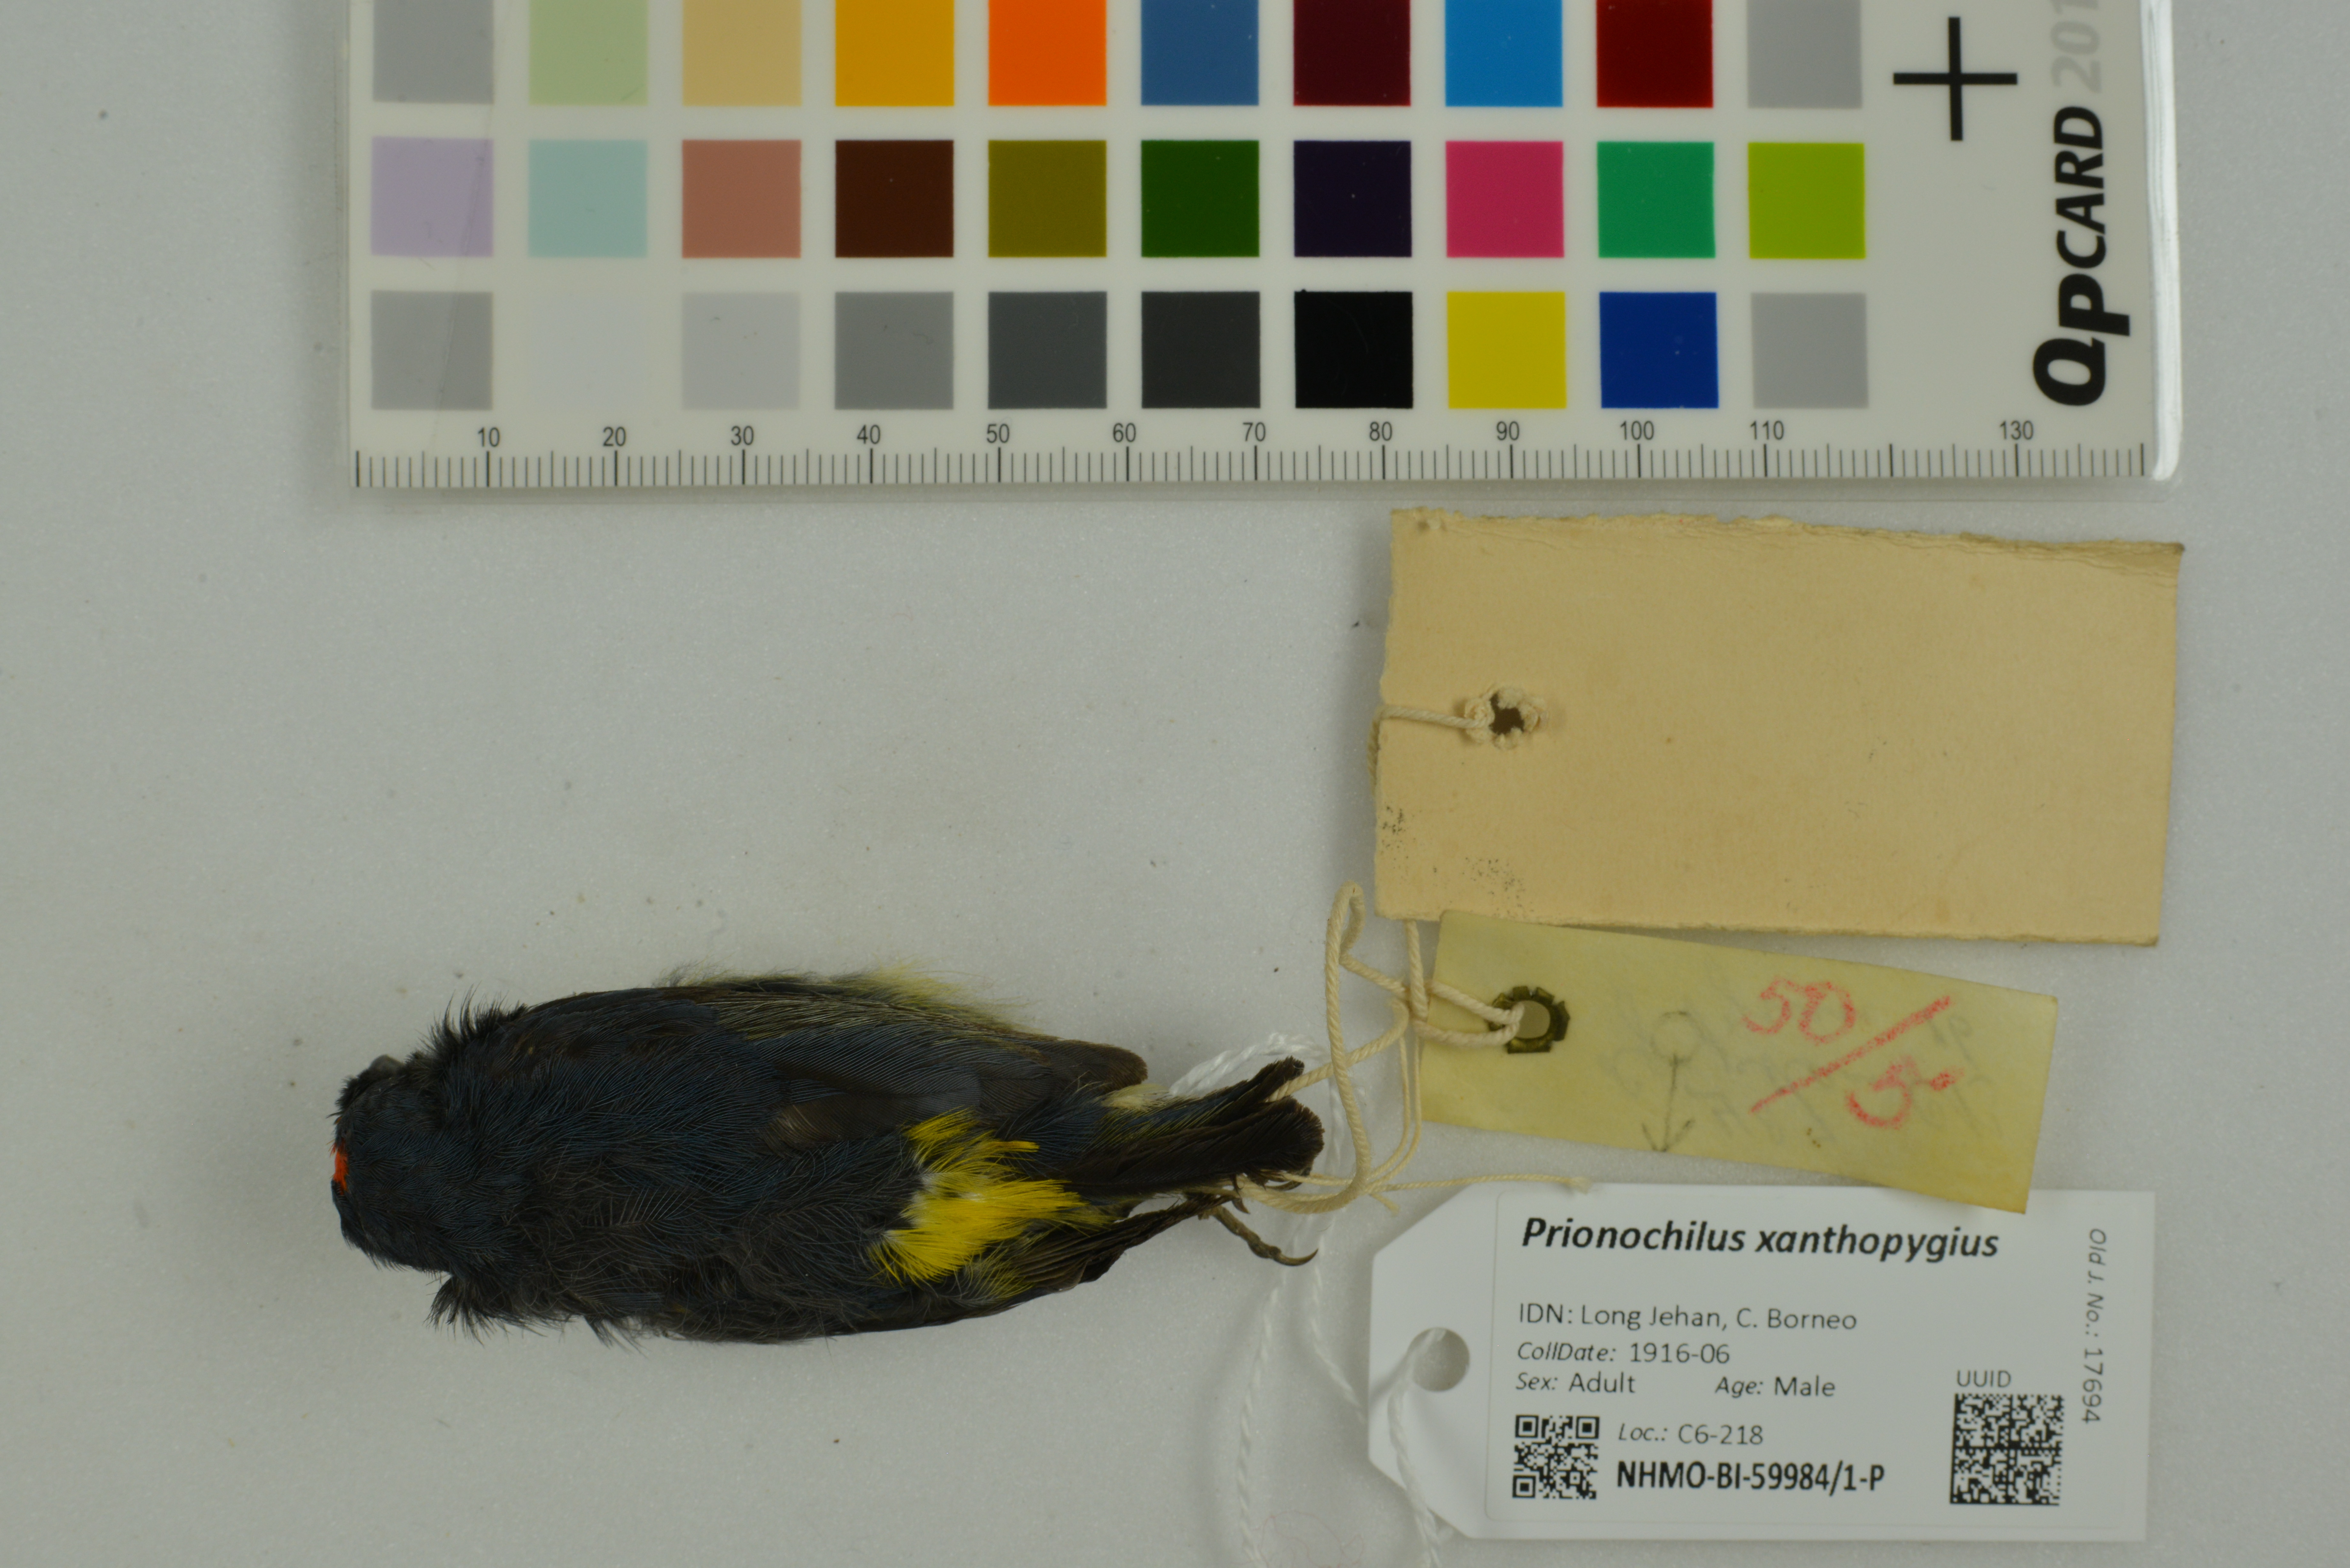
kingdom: Animalia
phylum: Chordata
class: Aves
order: Passeriformes
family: Dicaeidae
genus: Prionochilus
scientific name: Prionochilus xanthopygius
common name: Yellow-rumped flowerpecker
